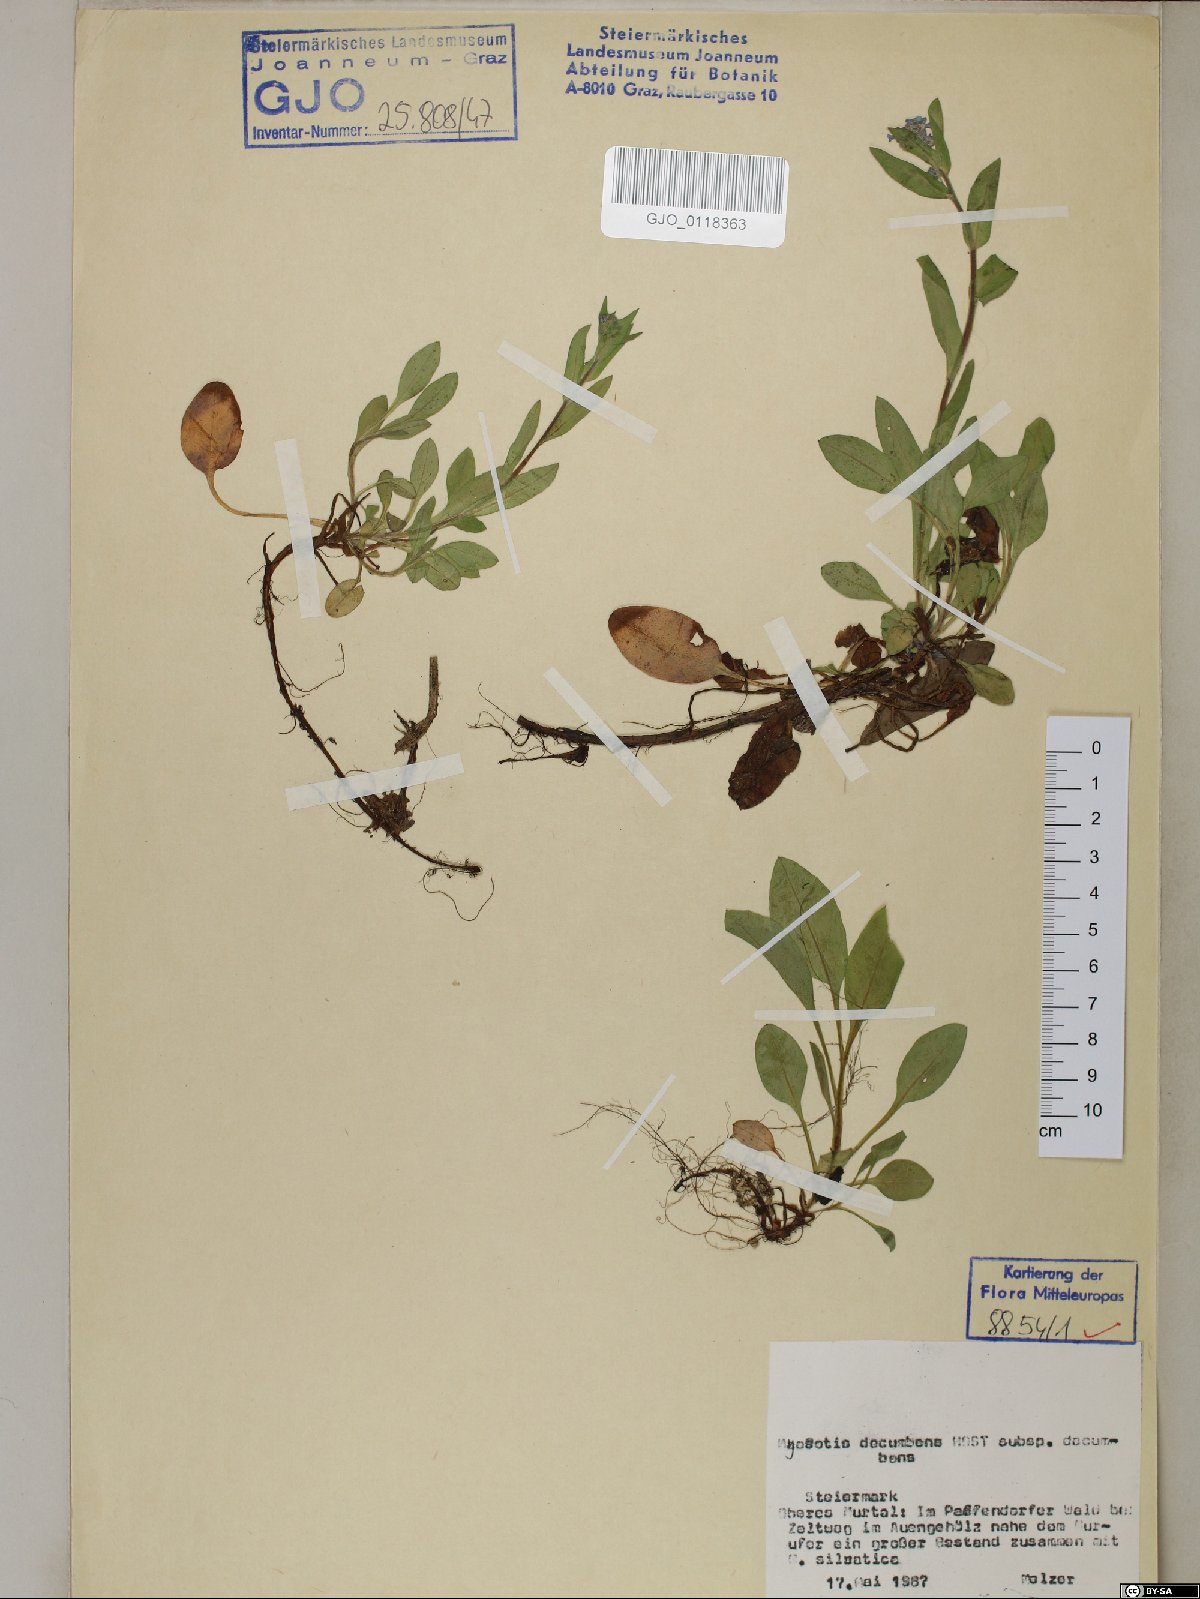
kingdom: Plantae
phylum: Tracheophyta
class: Magnoliopsida
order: Boraginales
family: Boraginaceae
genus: Myosotis
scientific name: Myosotis decumbens
